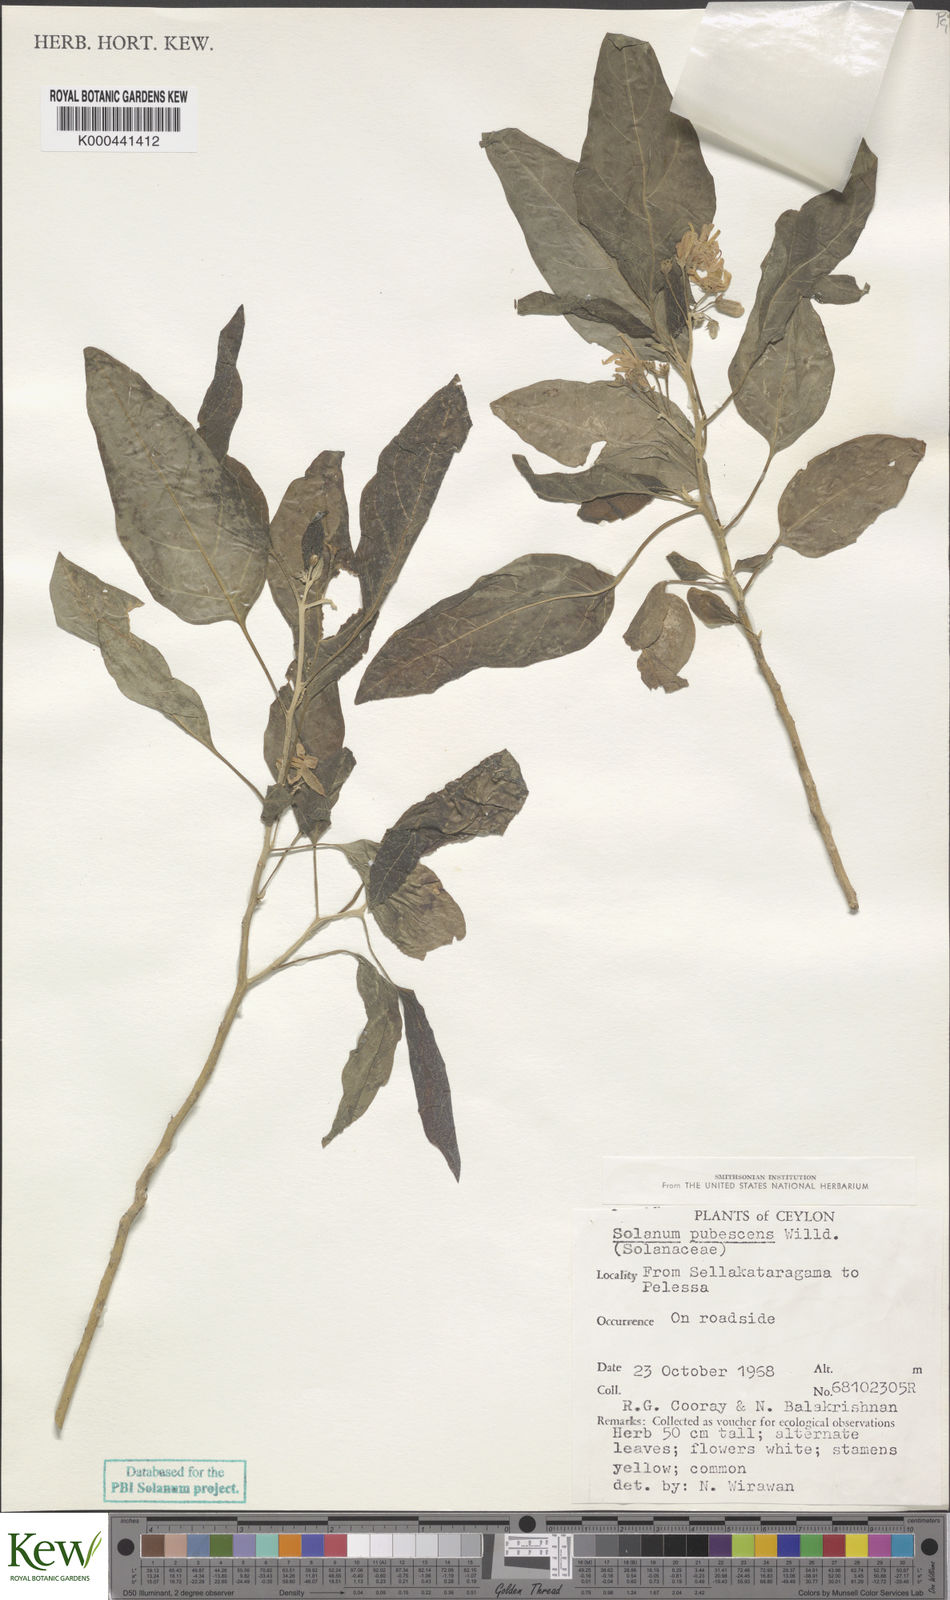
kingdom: Plantae
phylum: Tracheophyta
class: Magnoliopsida
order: Solanales
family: Solanaceae
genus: Solanum
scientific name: Solanum pubescens
